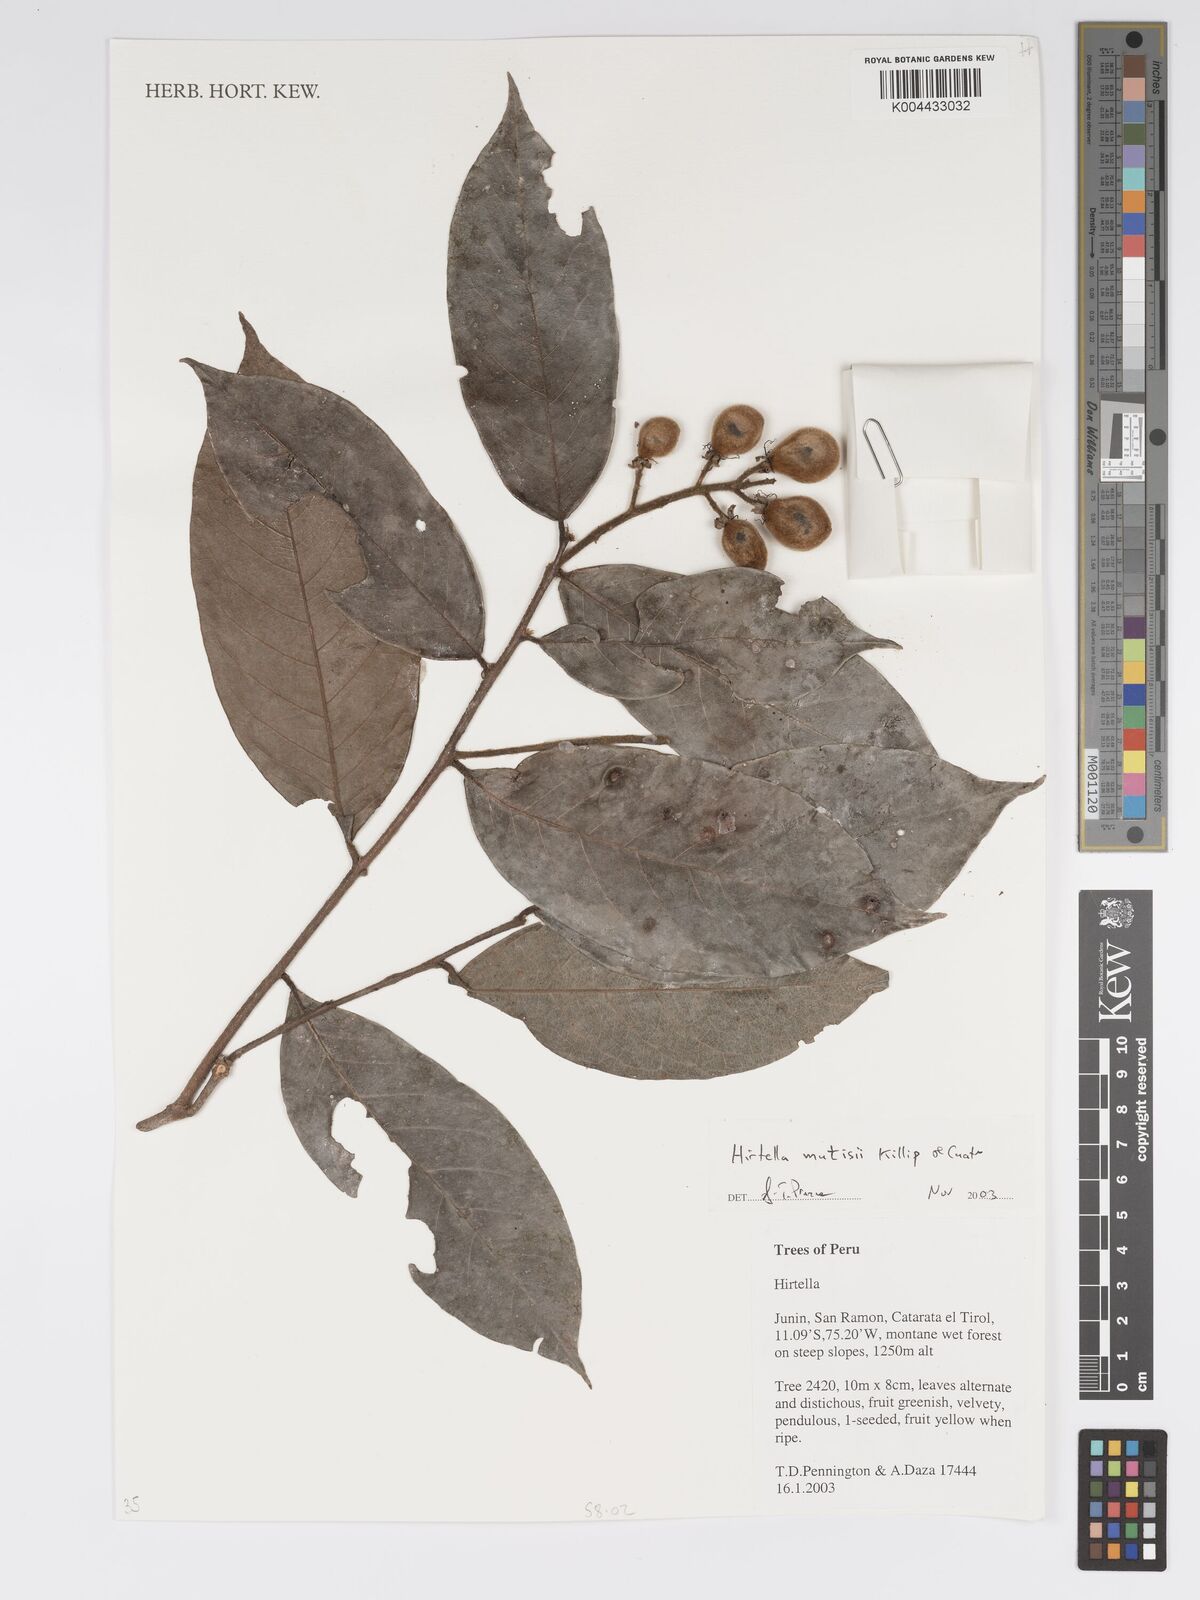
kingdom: Plantae
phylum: Tracheophyta
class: Magnoliopsida
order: Malpighiales
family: Chrysobalanaceae
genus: Hirtella
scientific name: Hirtella mutisii
